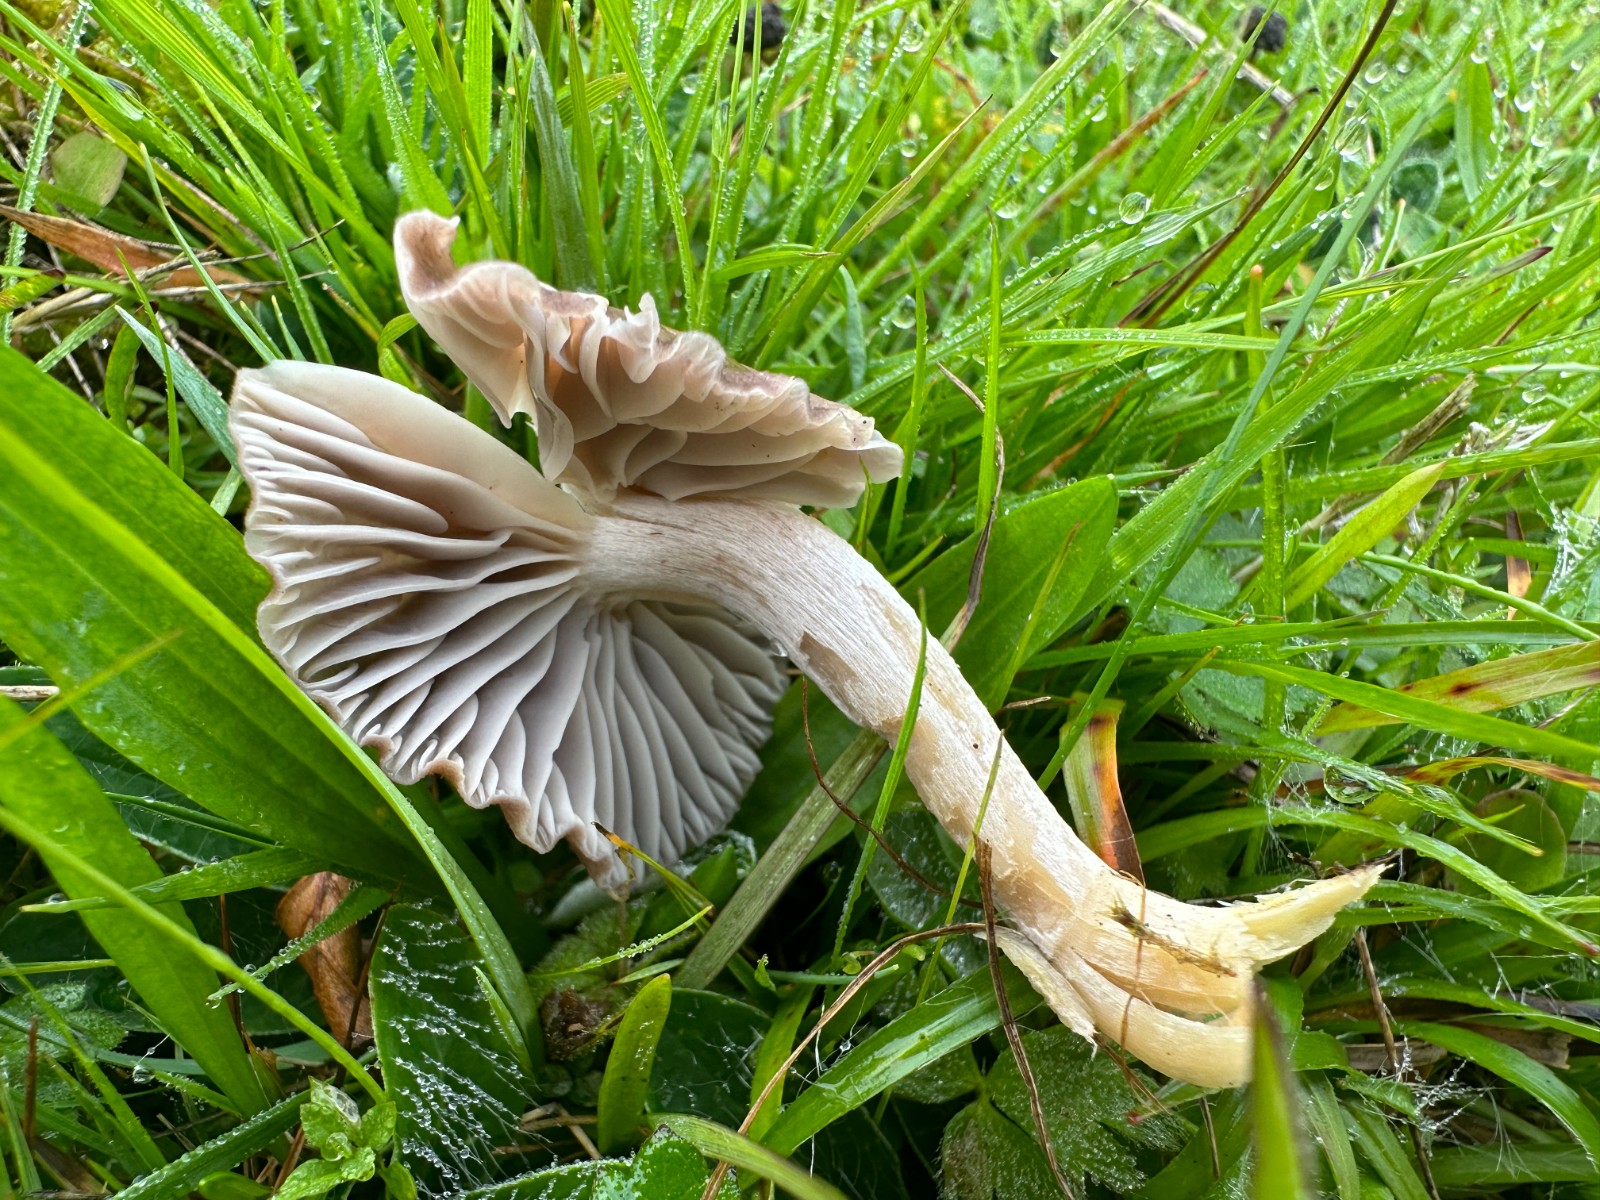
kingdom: Fungi
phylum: Basidiomycota
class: Agaricomycetes
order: Agaricales
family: Hygrophoraceae
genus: Cuphophyllus
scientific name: Cuphophyllus flavipes
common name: gulfodet vokshat
